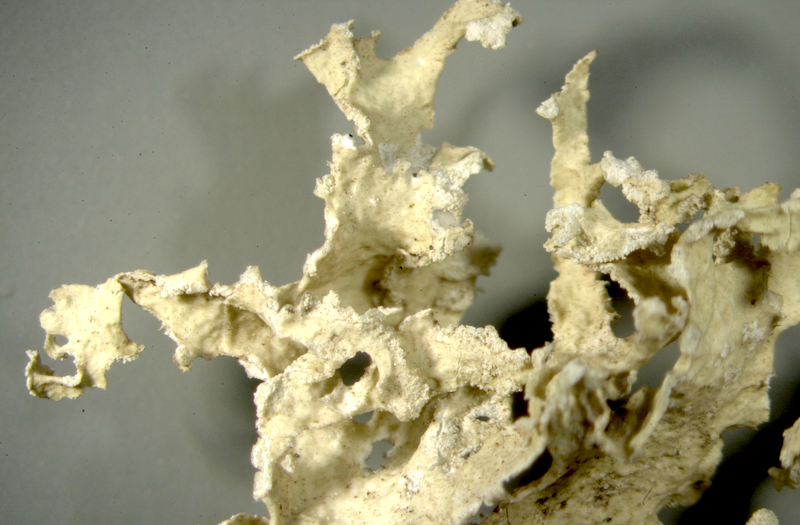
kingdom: Fungi
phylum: Ascomycota
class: Lecanoromycetes
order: Lecanorales
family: Ramalinaceae
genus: Ramalina
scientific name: Ramalina celastri
